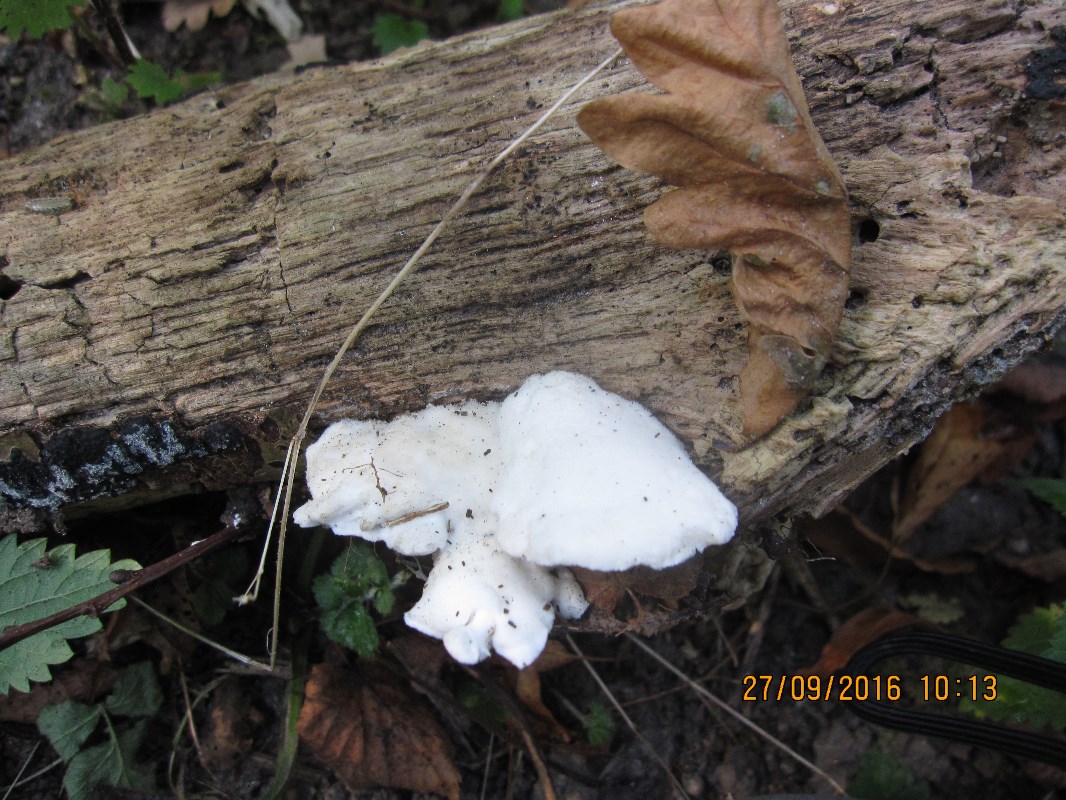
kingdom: Fungi
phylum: Basidiomycota
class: Agaricomycetes
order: Polyporales
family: Incrustoporiaceae
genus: Tyromyces
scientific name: Tyromyces lacteus
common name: mælkehvid kødporesvamp
